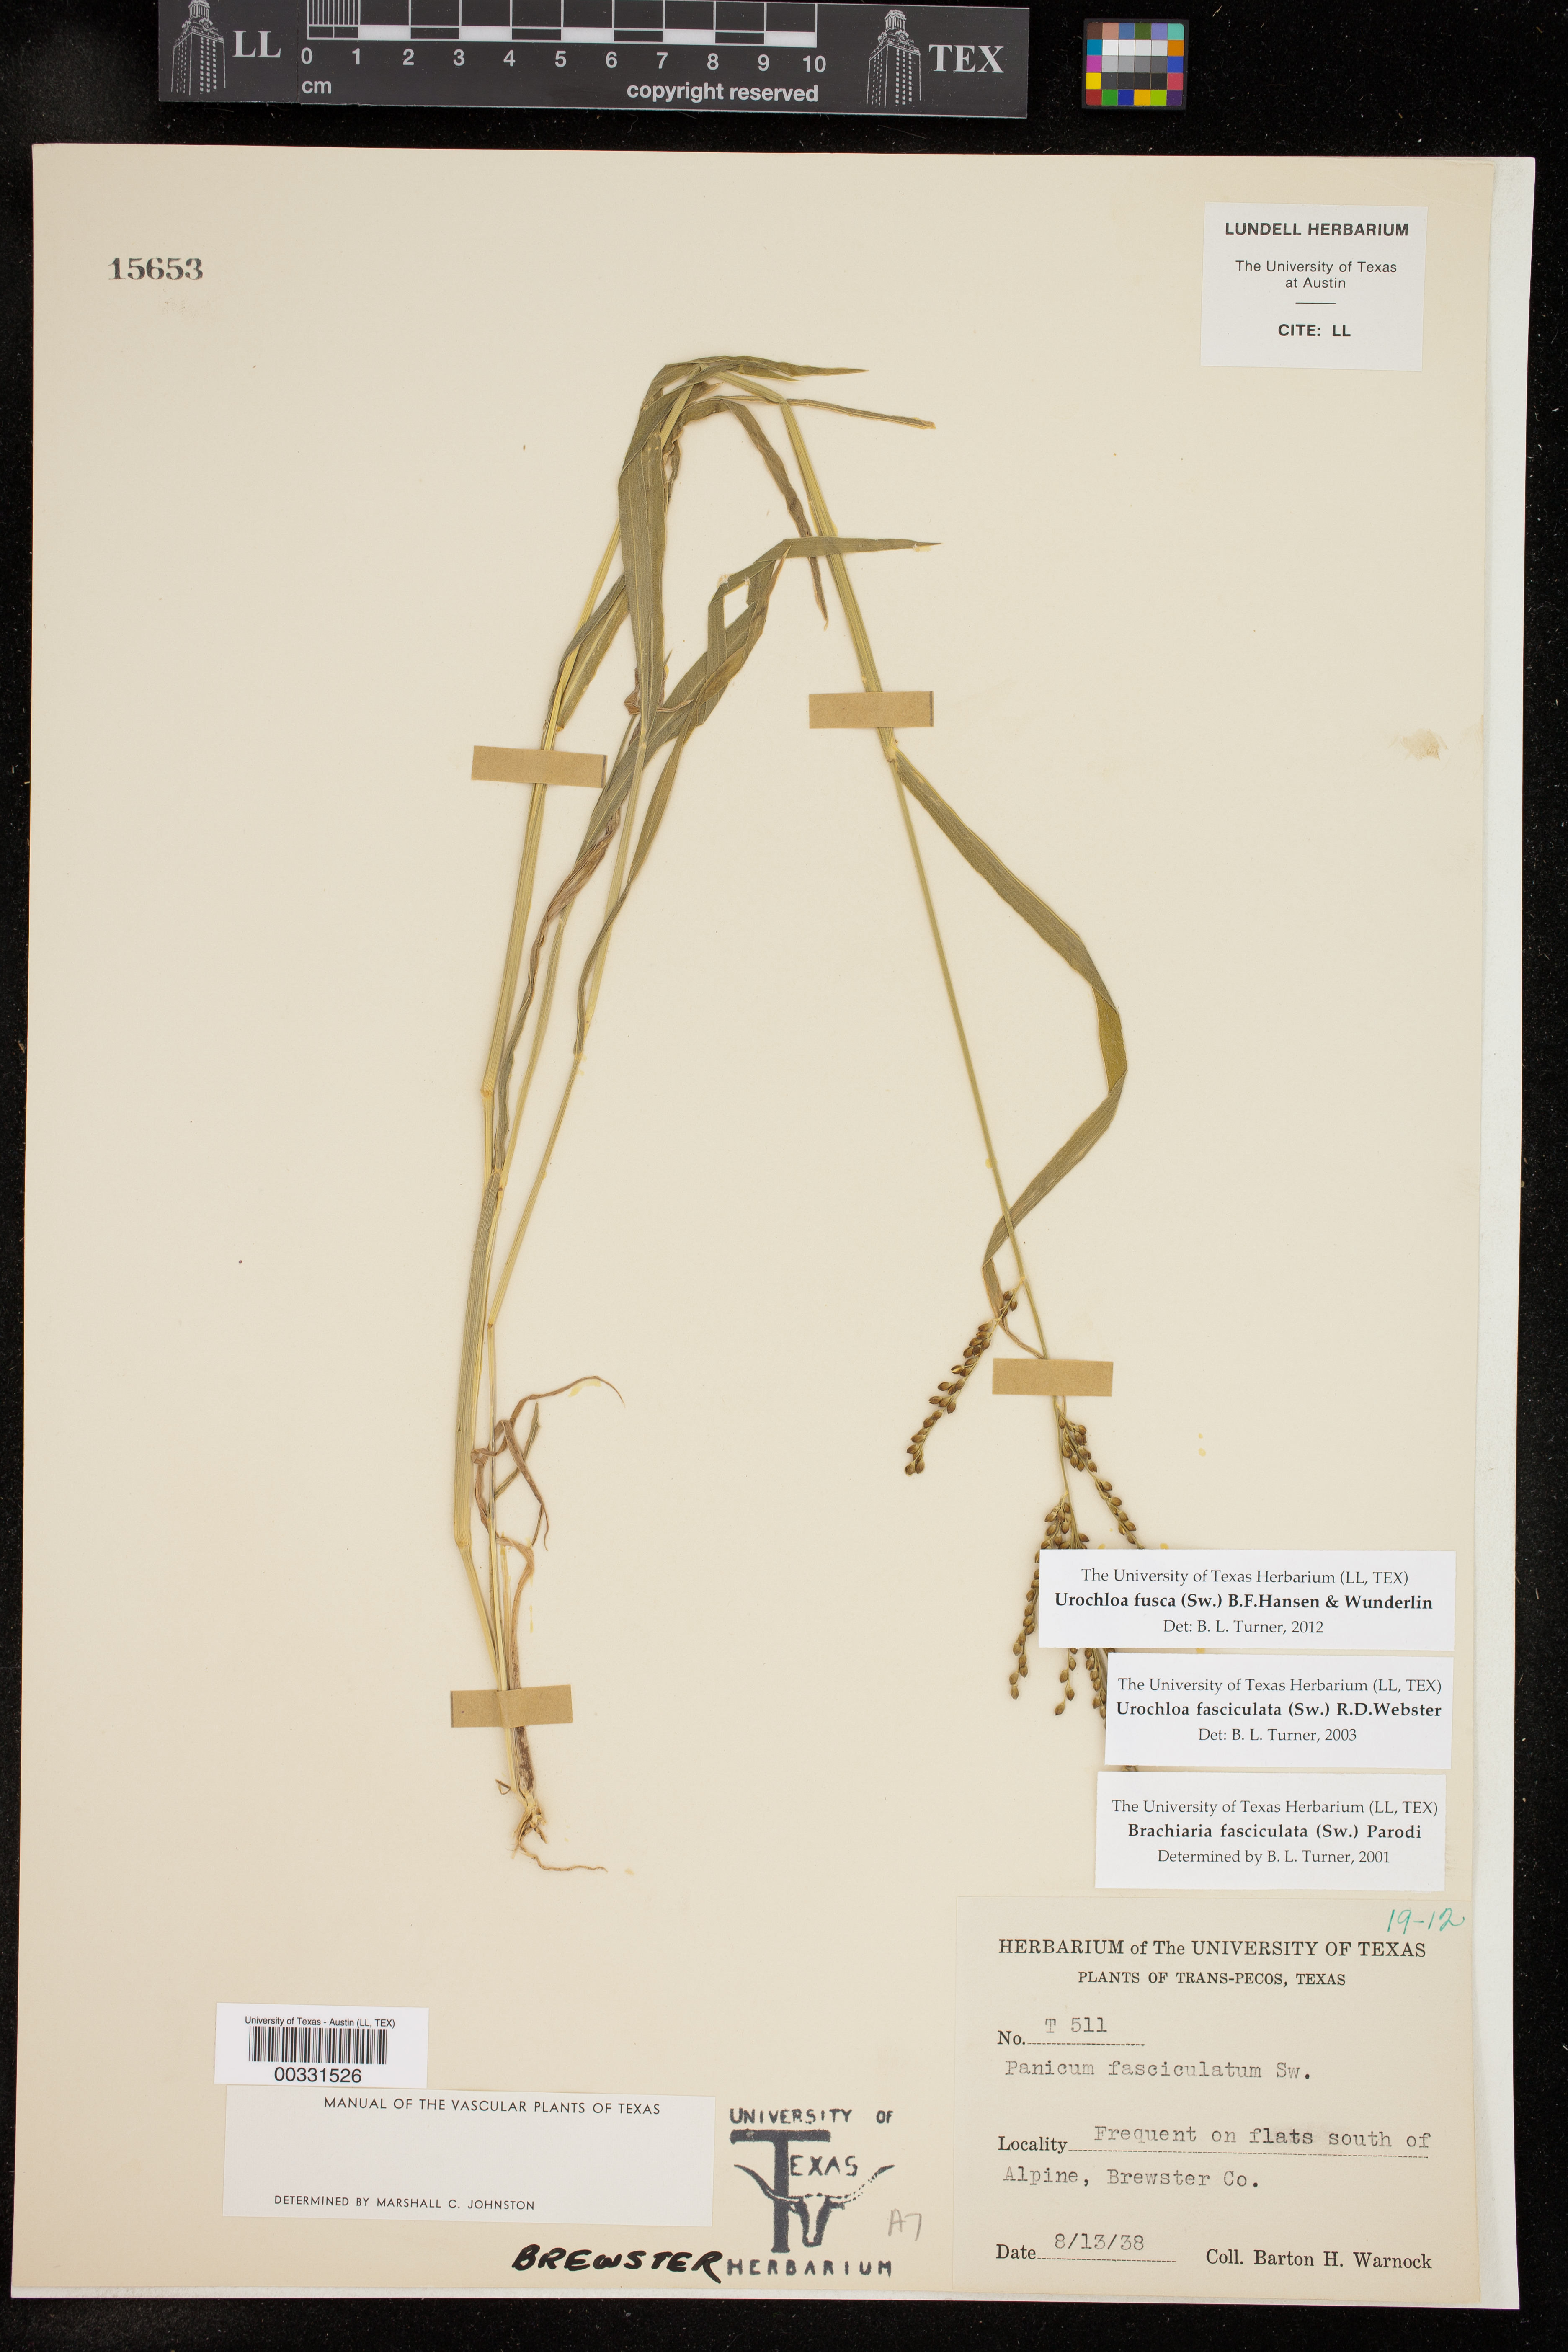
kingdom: Plantae
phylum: Tracheophyta
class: Liliopsida
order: Poales
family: Poaceae
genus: Urochloa
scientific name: Urochloa fusca
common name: Browntop signal grass
